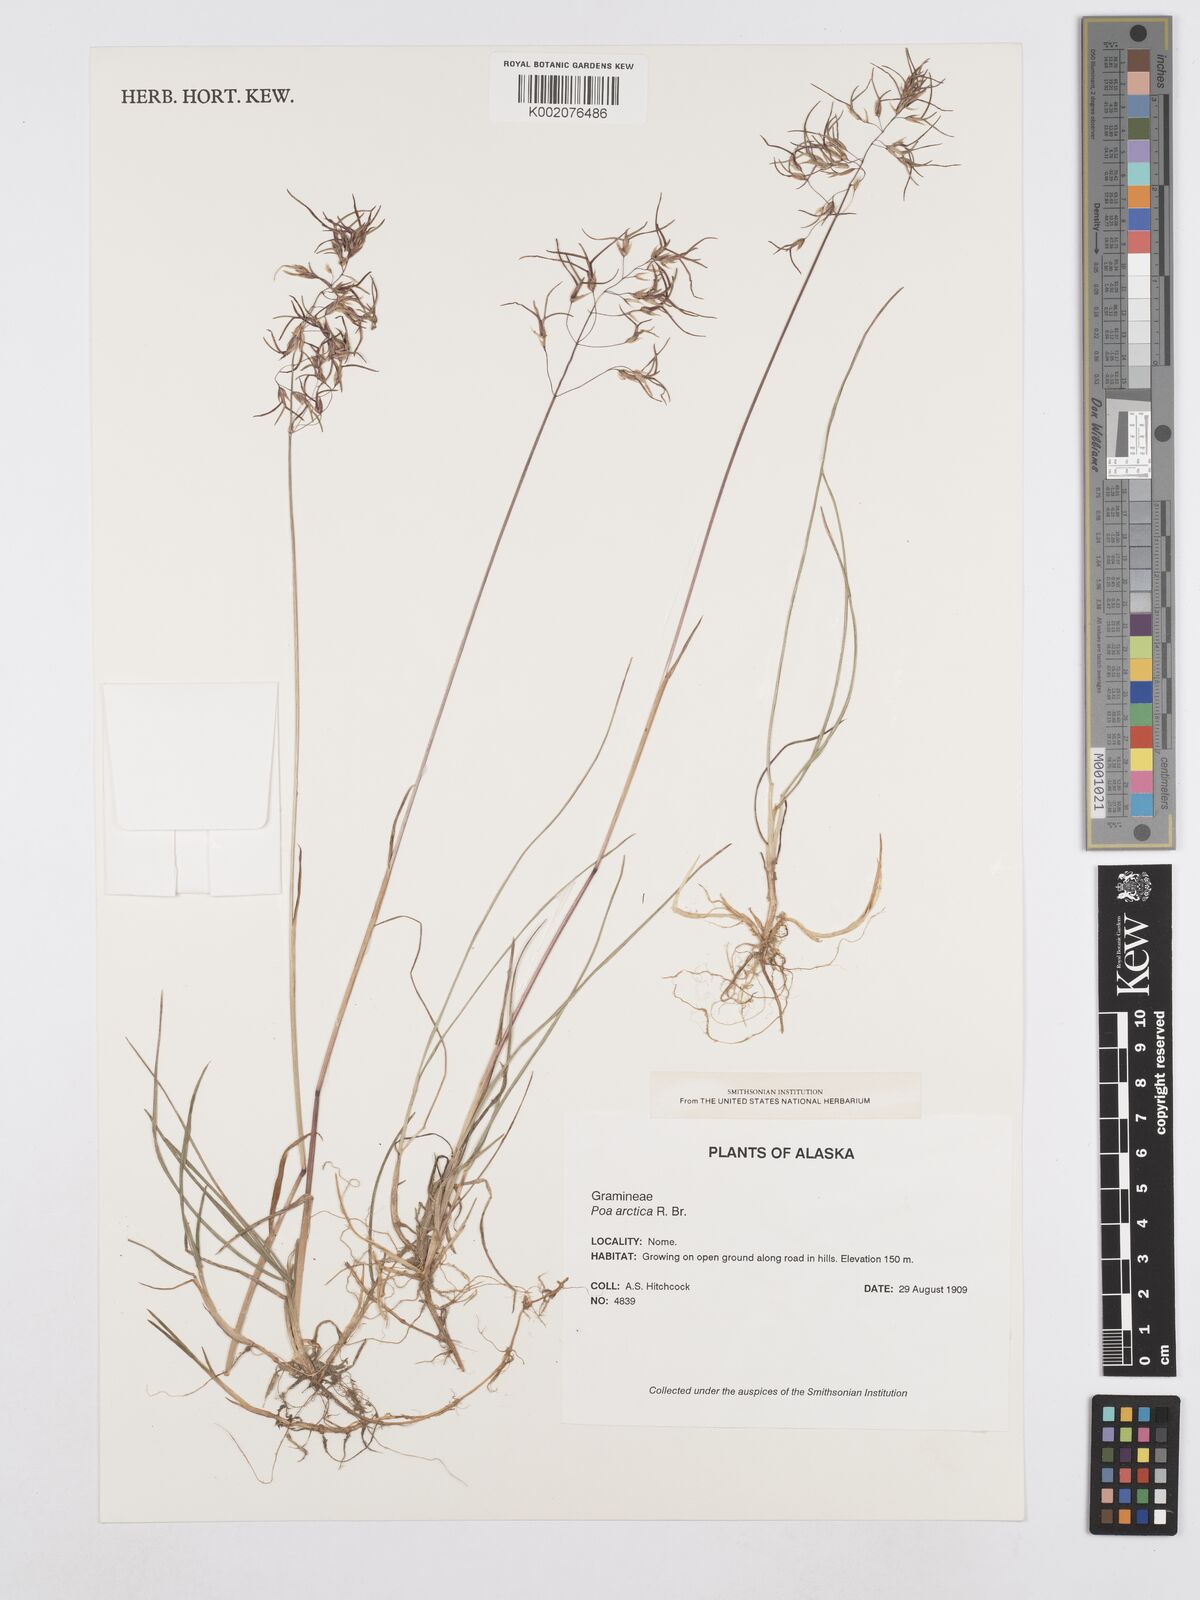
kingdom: Plantae
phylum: Tracheophyta
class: Liliopsida
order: Poales
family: Poaceae
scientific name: Poaceae
